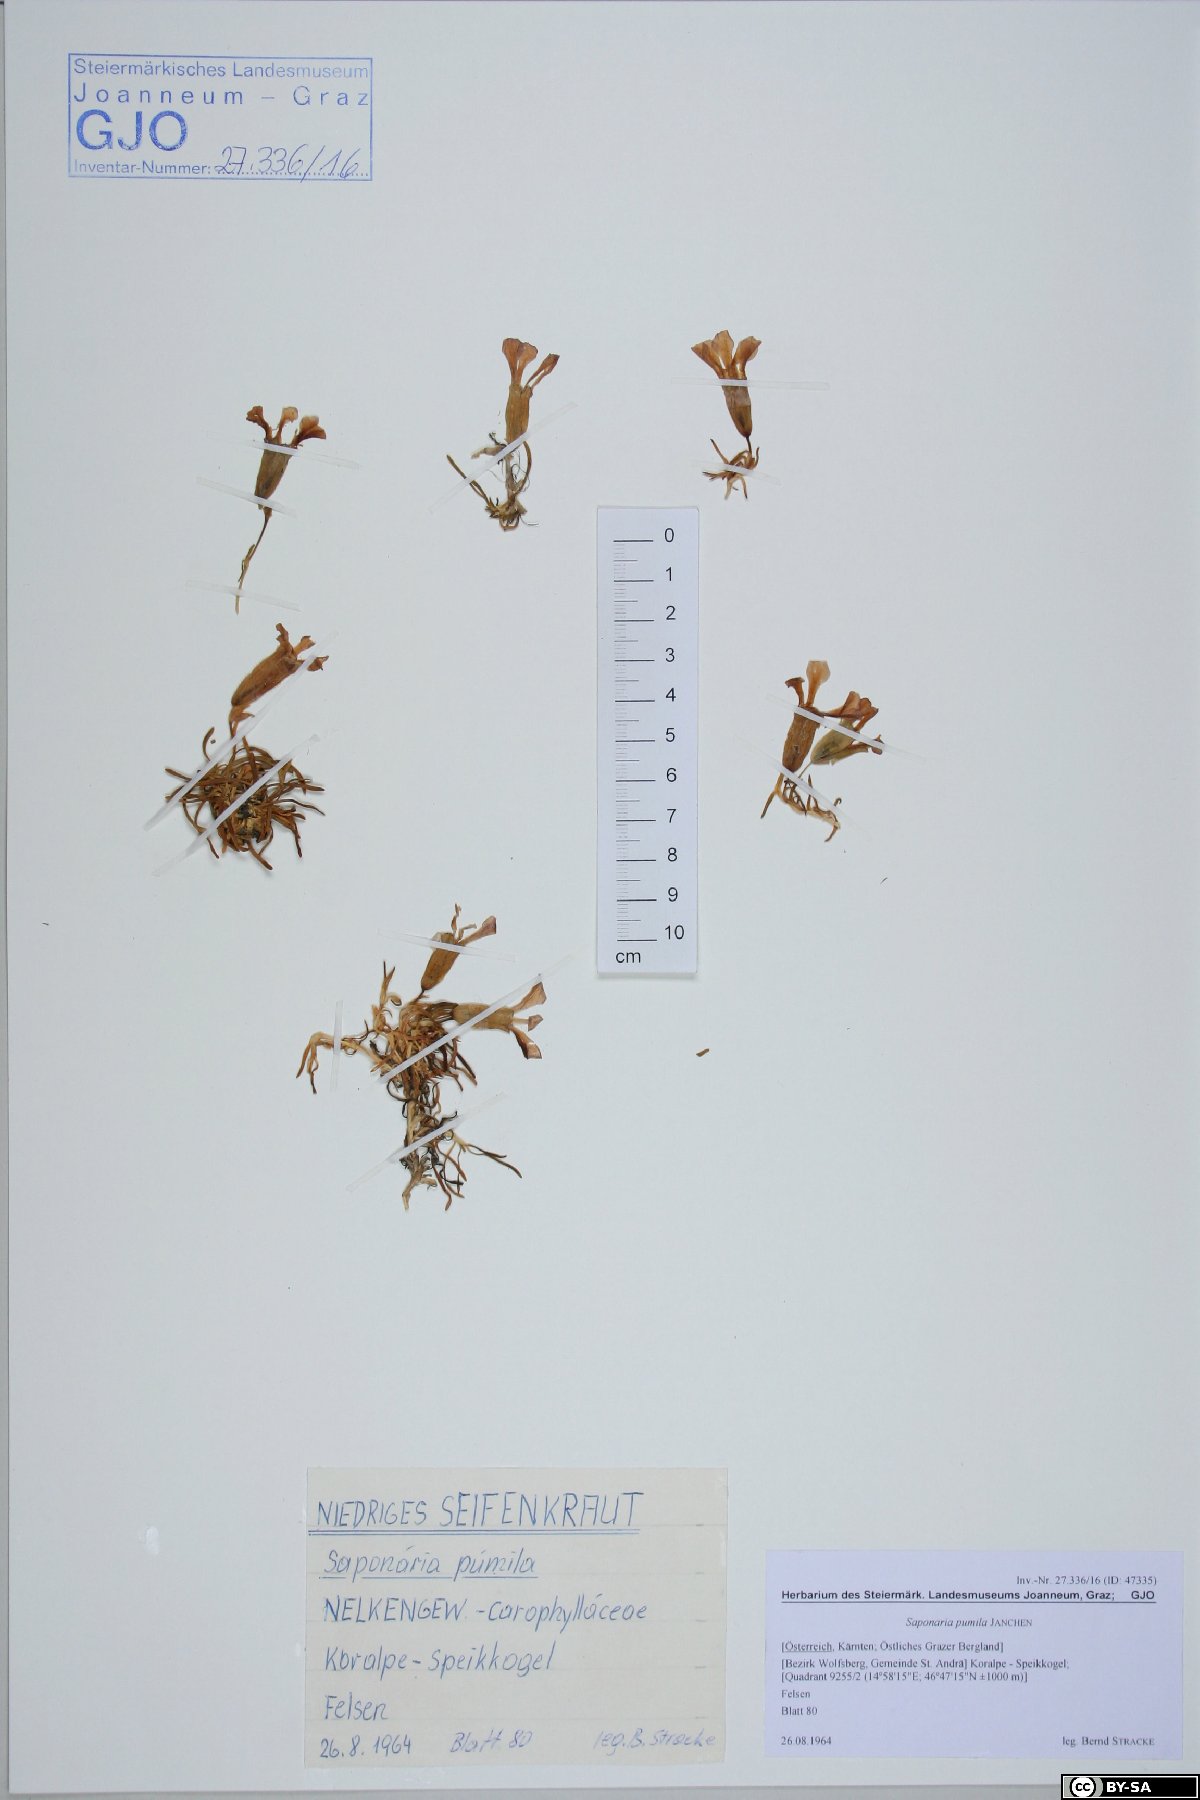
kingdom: Plantae
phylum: Tracheophyta
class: Magnoliopsida
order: Caryophyllales
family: Caryophyllaceae
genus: Saponaria
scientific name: Saponaria pumila
